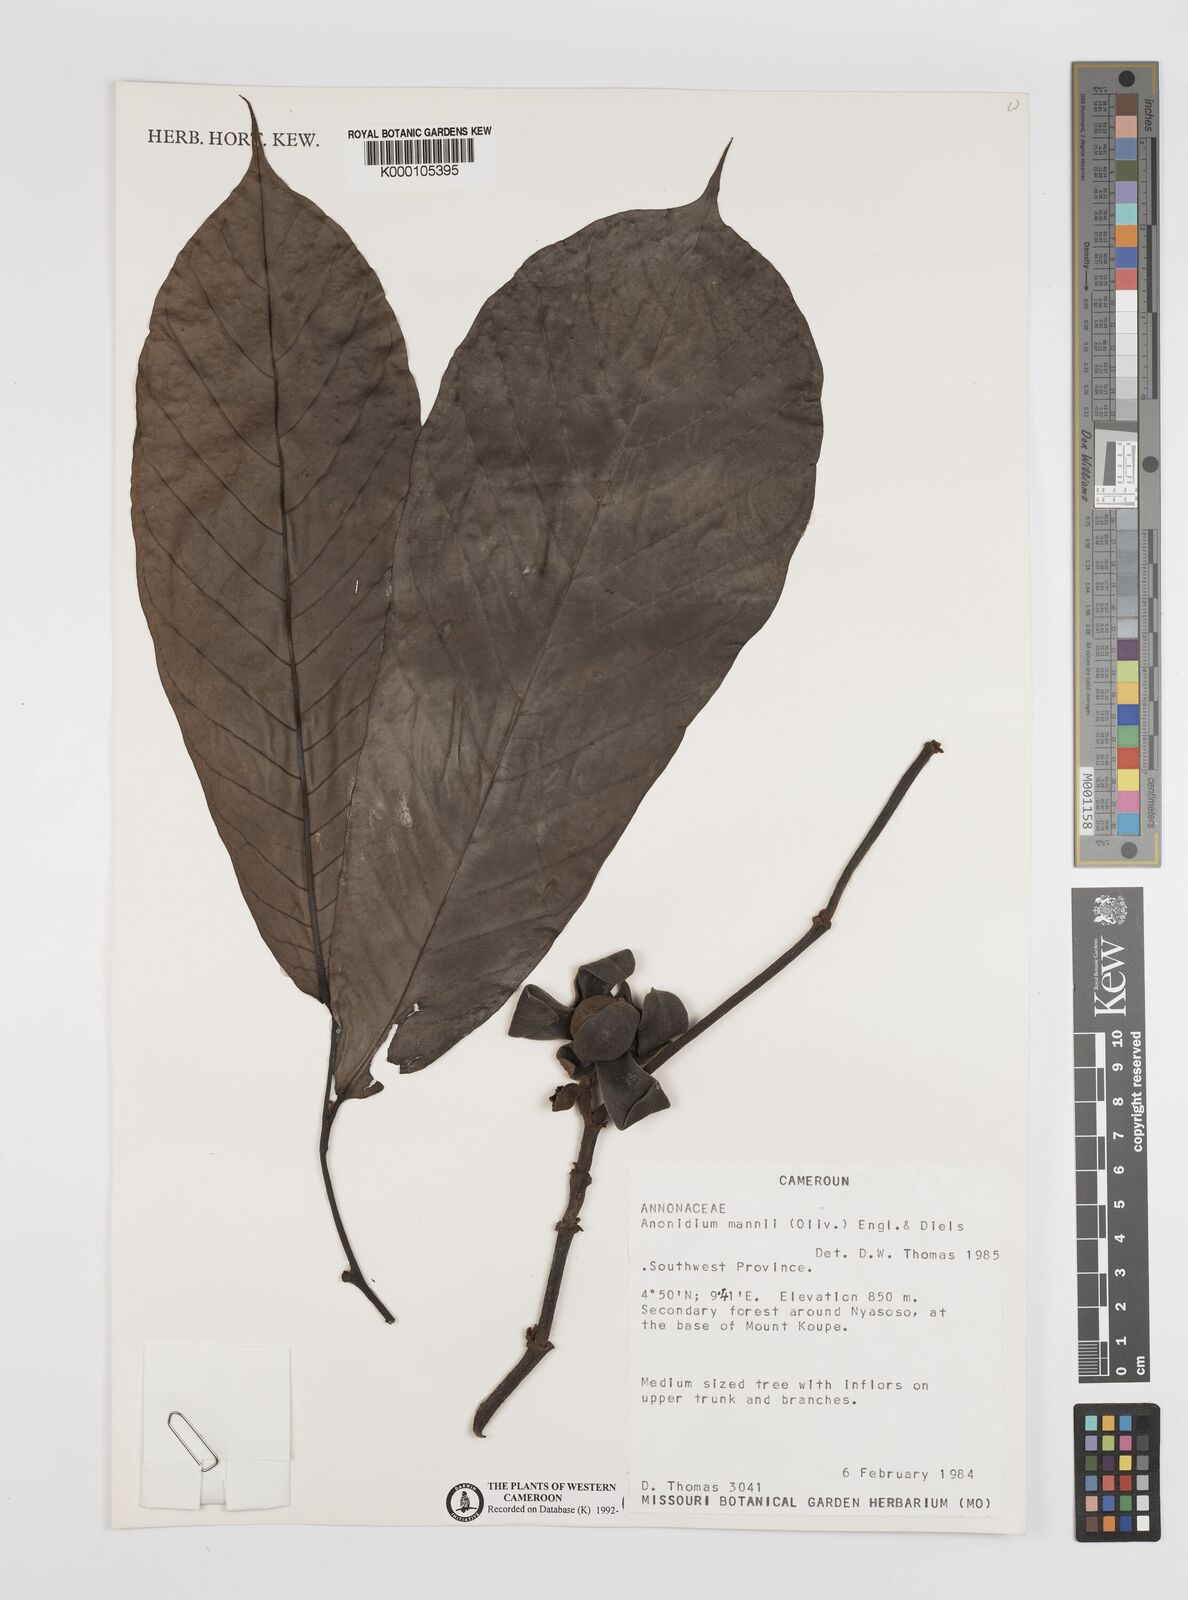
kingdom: Plantae
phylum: Tracheophyta
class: Magnoliopsida
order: Magnoliales
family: Annonaceae
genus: Anonidium
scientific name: Anonidium mannii
